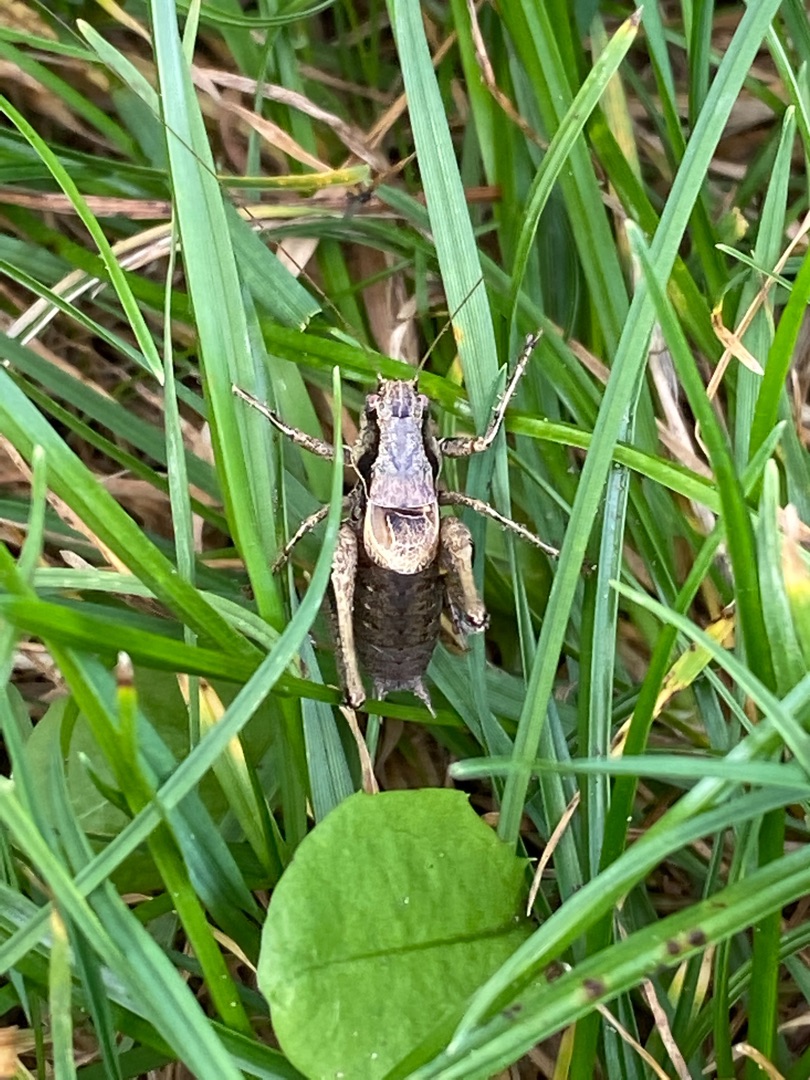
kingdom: Animalia
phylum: Arthropoda
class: Insecta
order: Orthoptera
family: Tettigoniidae
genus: Pholidoptera
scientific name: Pholidoptera griseoaptera
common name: Buskgræshoppe
